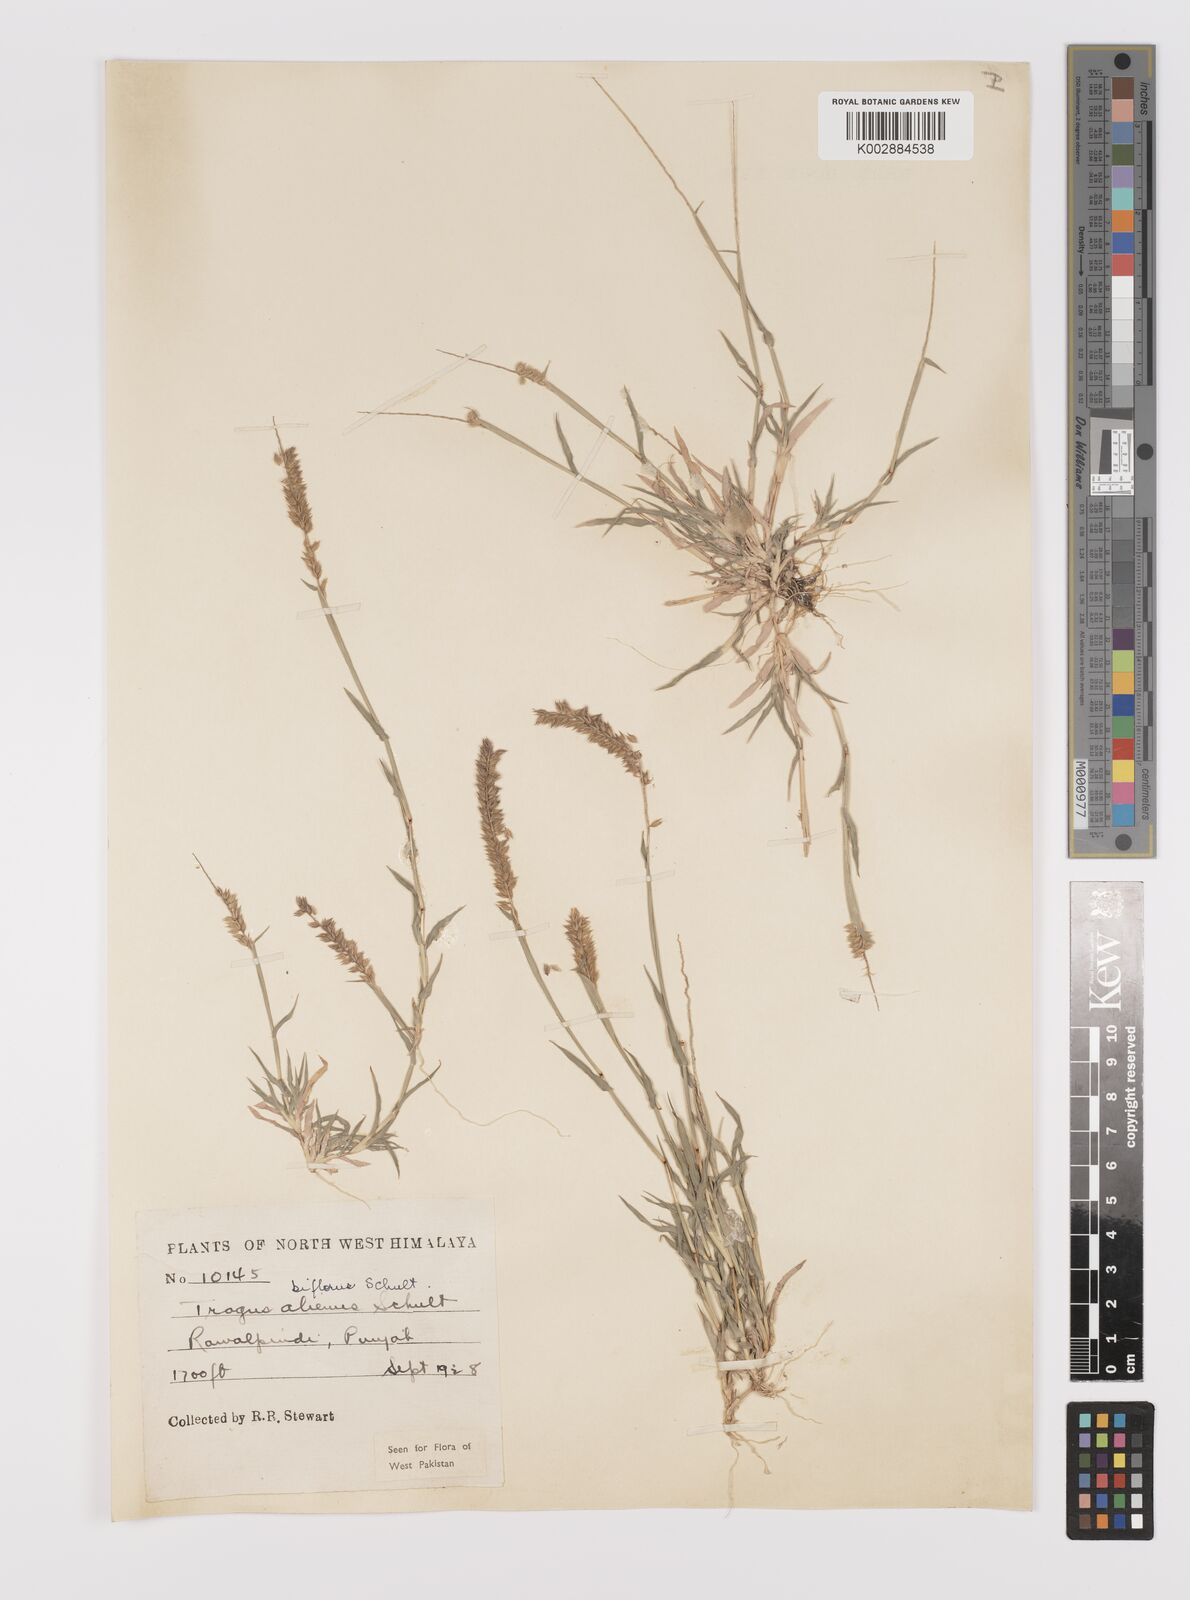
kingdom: Plantae
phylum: Tracheophyta
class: Liliopsida
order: Poales
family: Poaceae
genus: Tragus
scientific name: Tragus mongolorum
